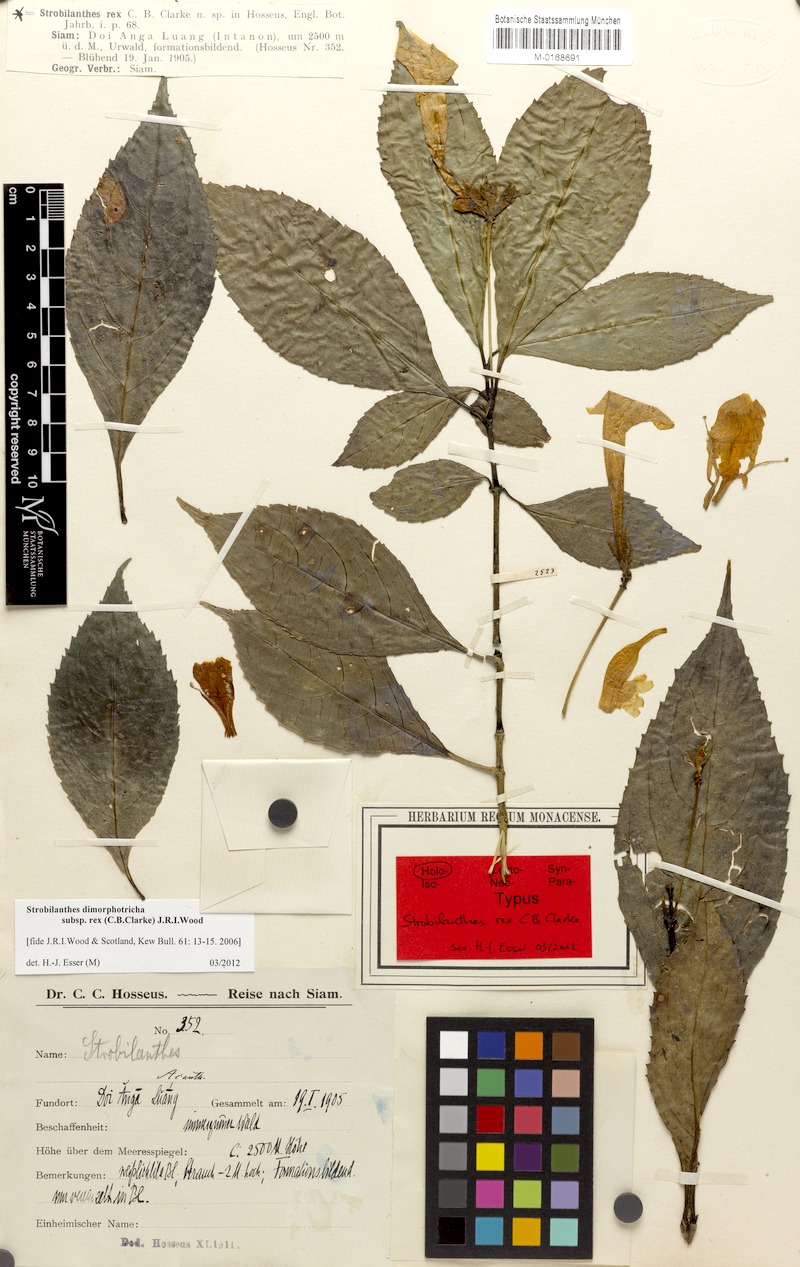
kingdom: Plantae
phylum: Tracheophyta
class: Magnoliopsida
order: Lamiales
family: Acanthaceae
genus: Strobilanthes
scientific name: Strobilanthes dimorphotricha
